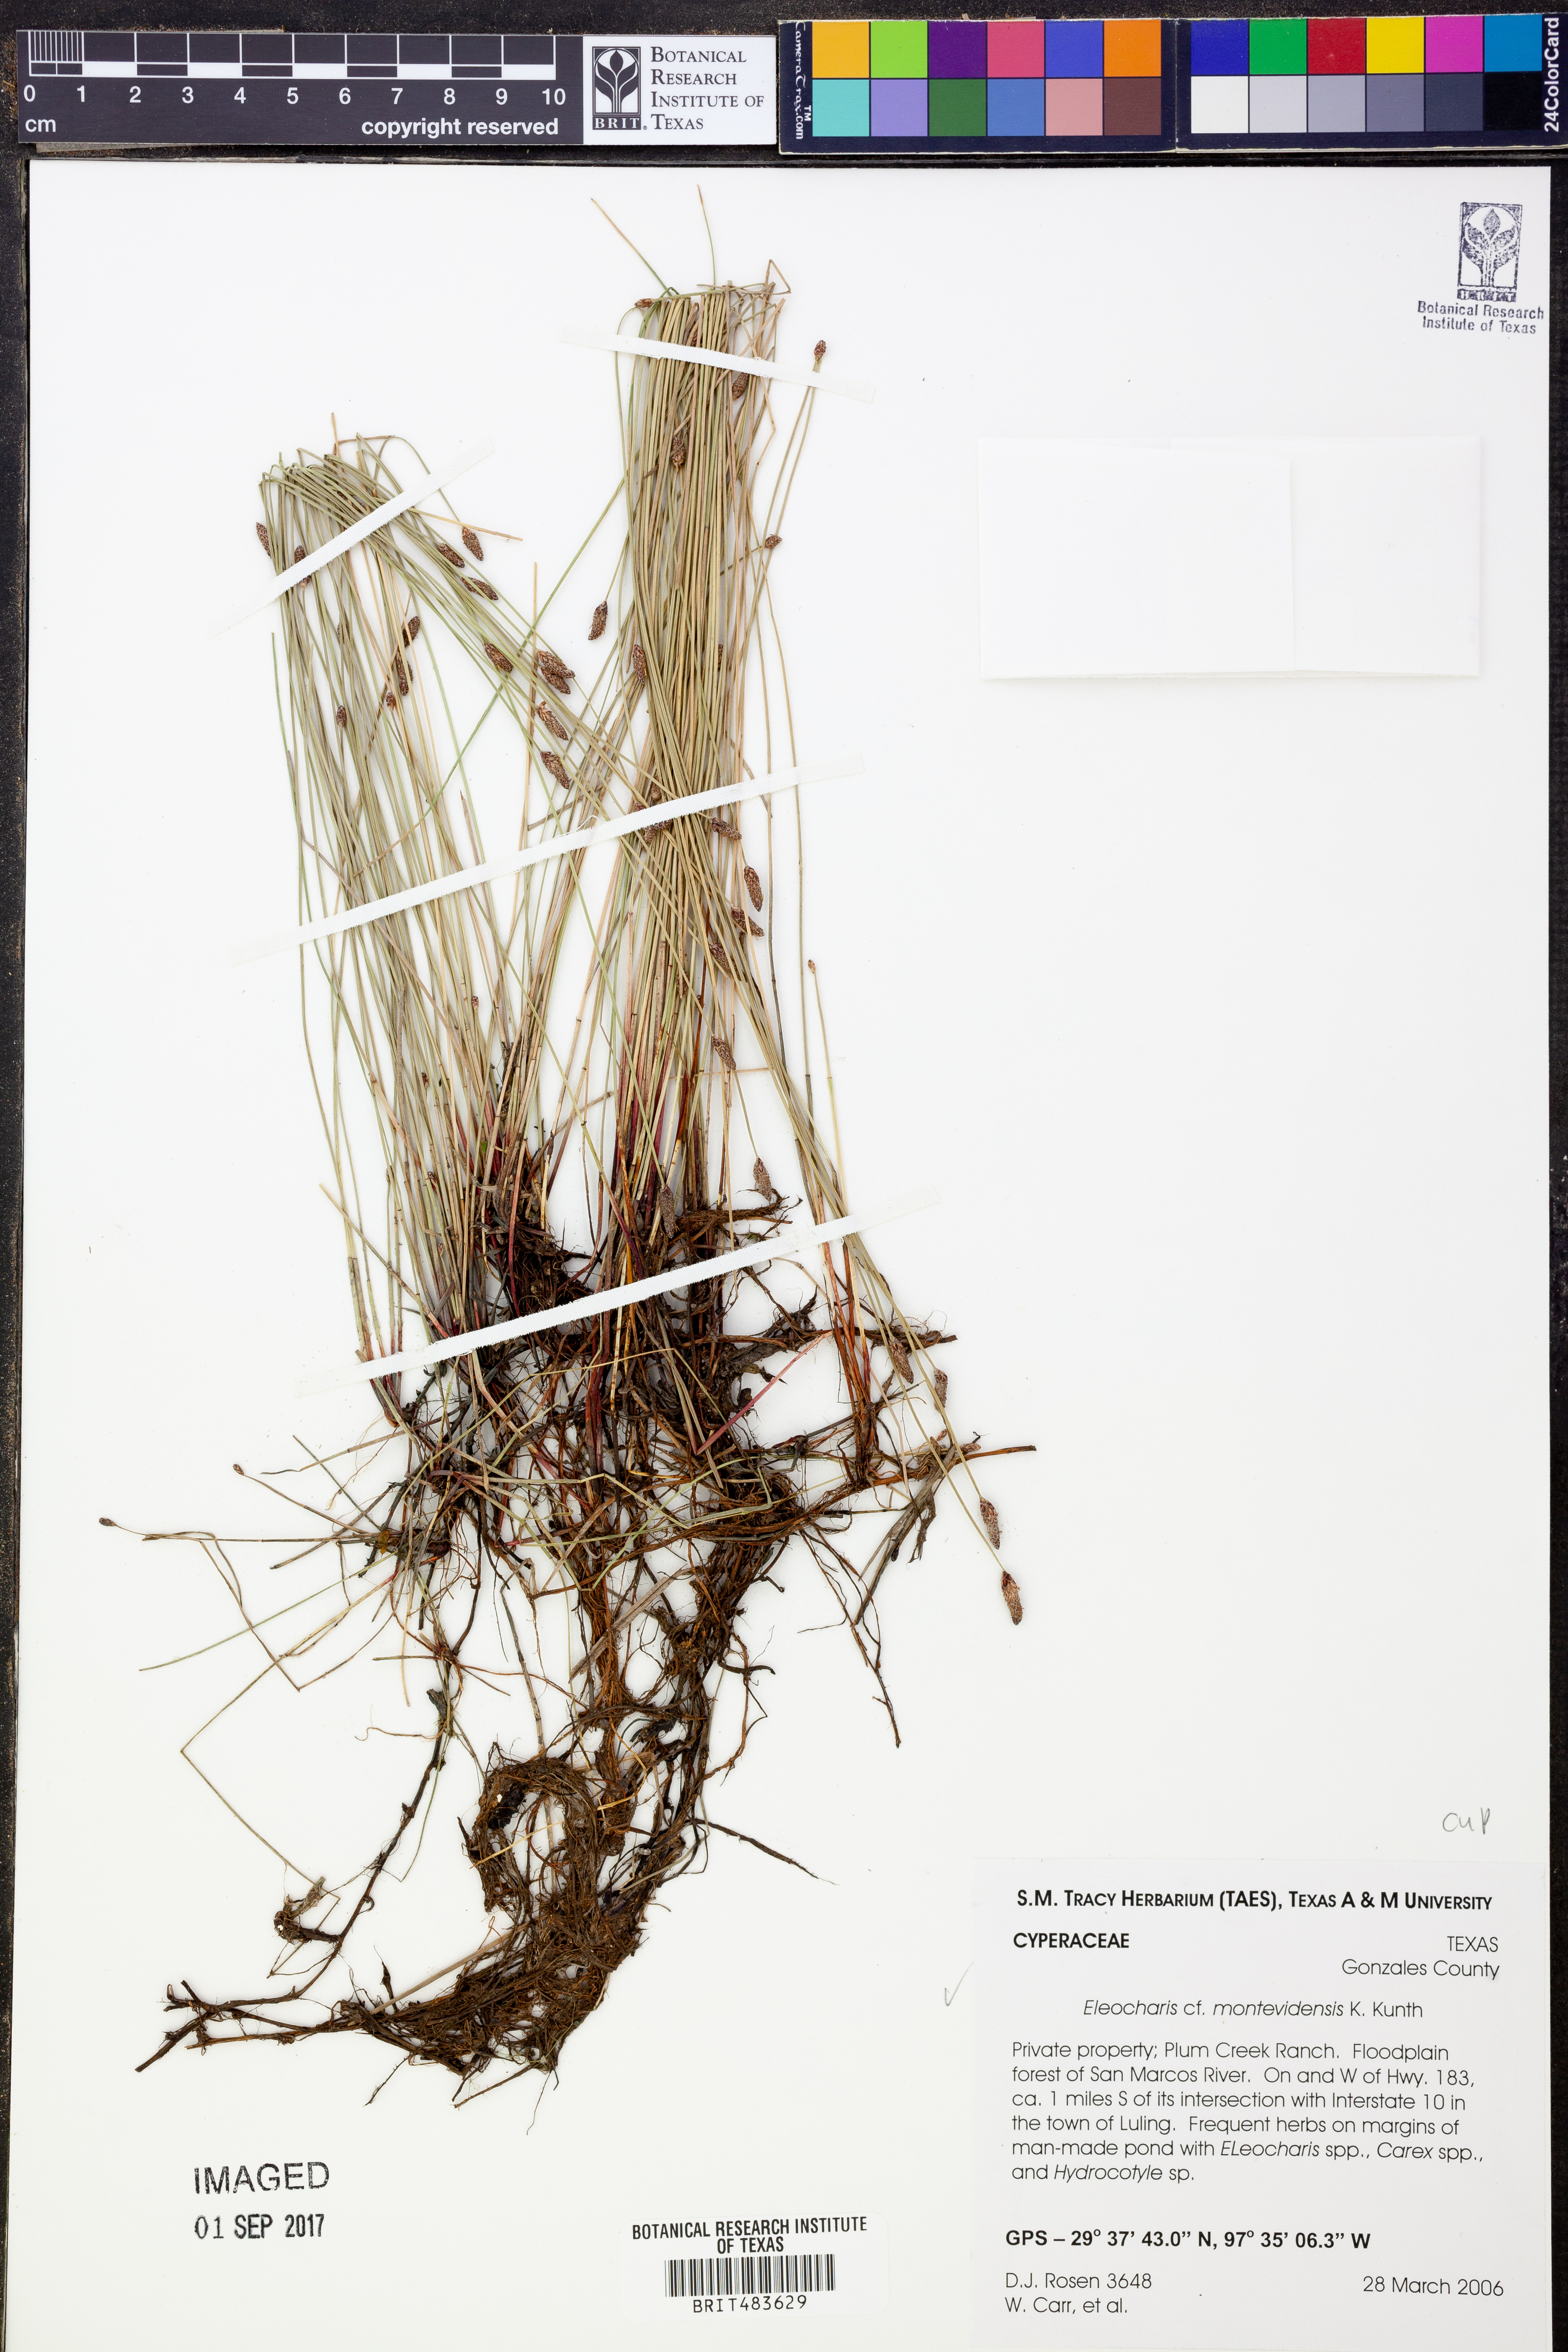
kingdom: Plantae
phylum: Tracheophyta
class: Liliopsida
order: Poales
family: Cyperaceae
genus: Eleocharis
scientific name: Eleocharis montevidensis
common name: Sand spike-rush
